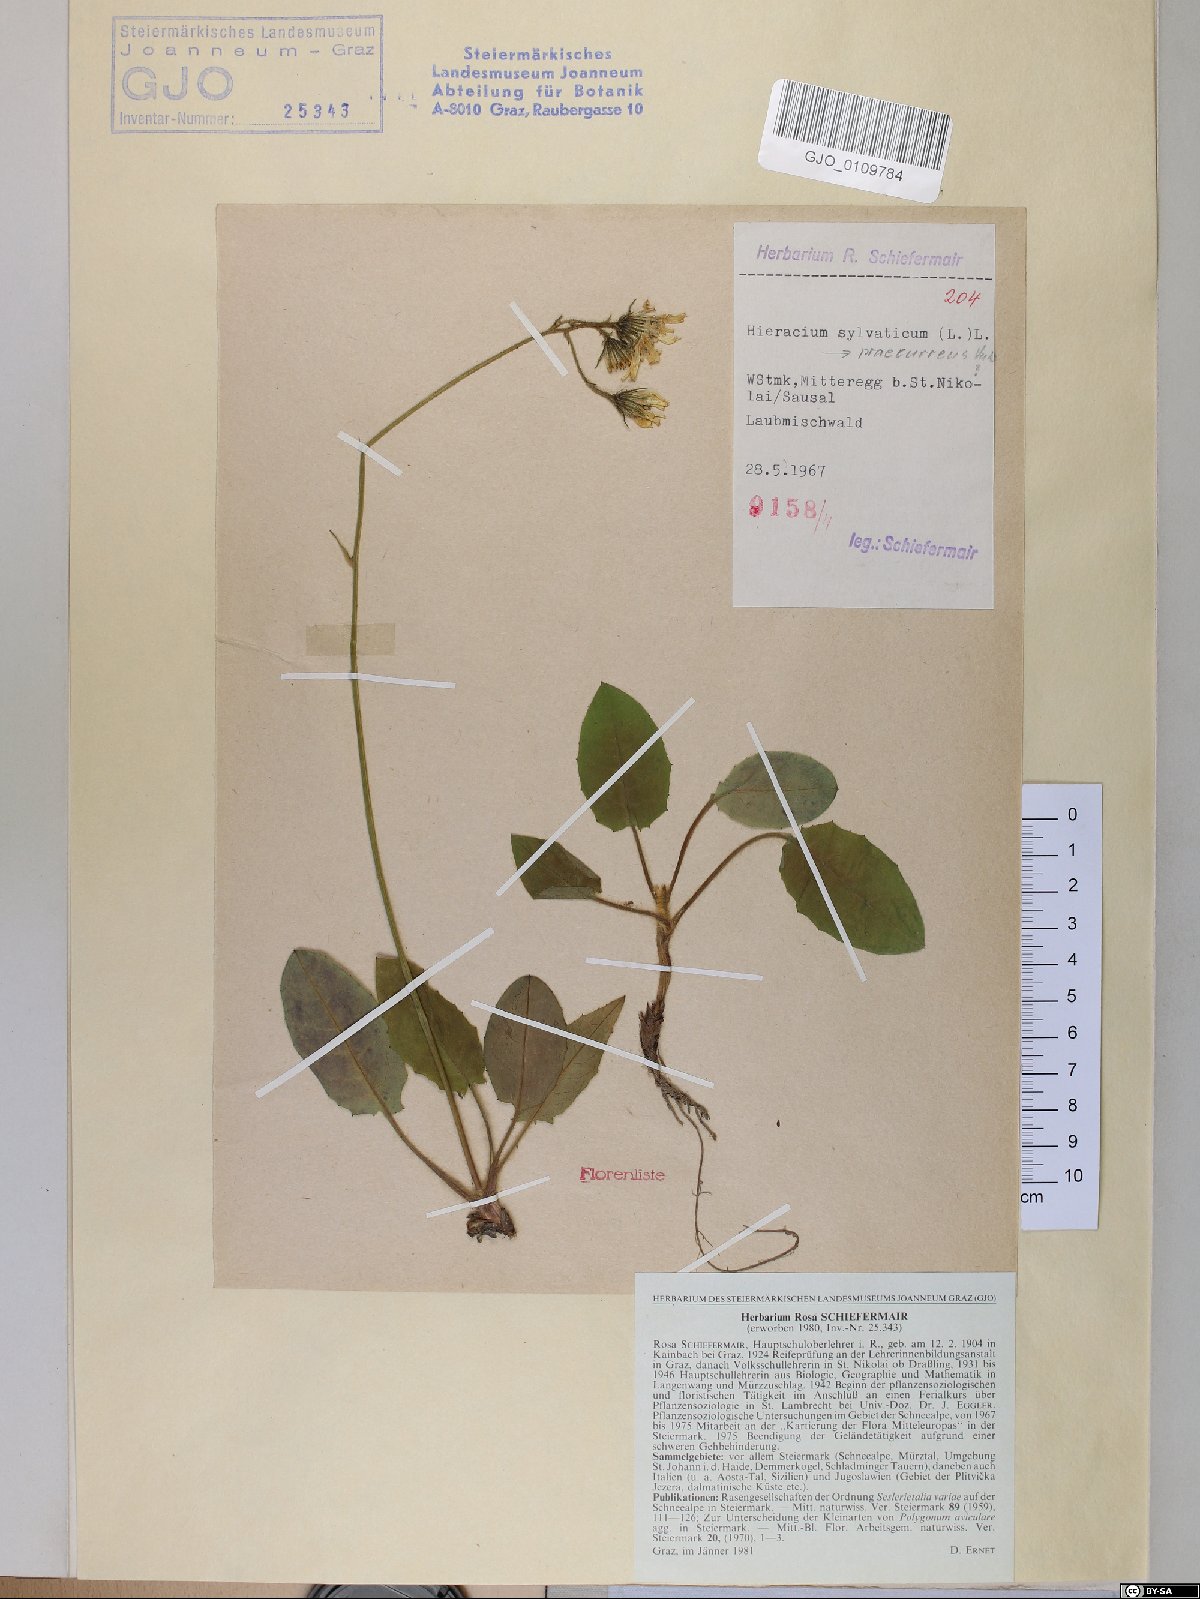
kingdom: Plantae
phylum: Tracheophyta
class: Magnoliopsida
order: Asterales
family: Asteraceae
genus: Hieracium
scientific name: Hieracium rotundatum
